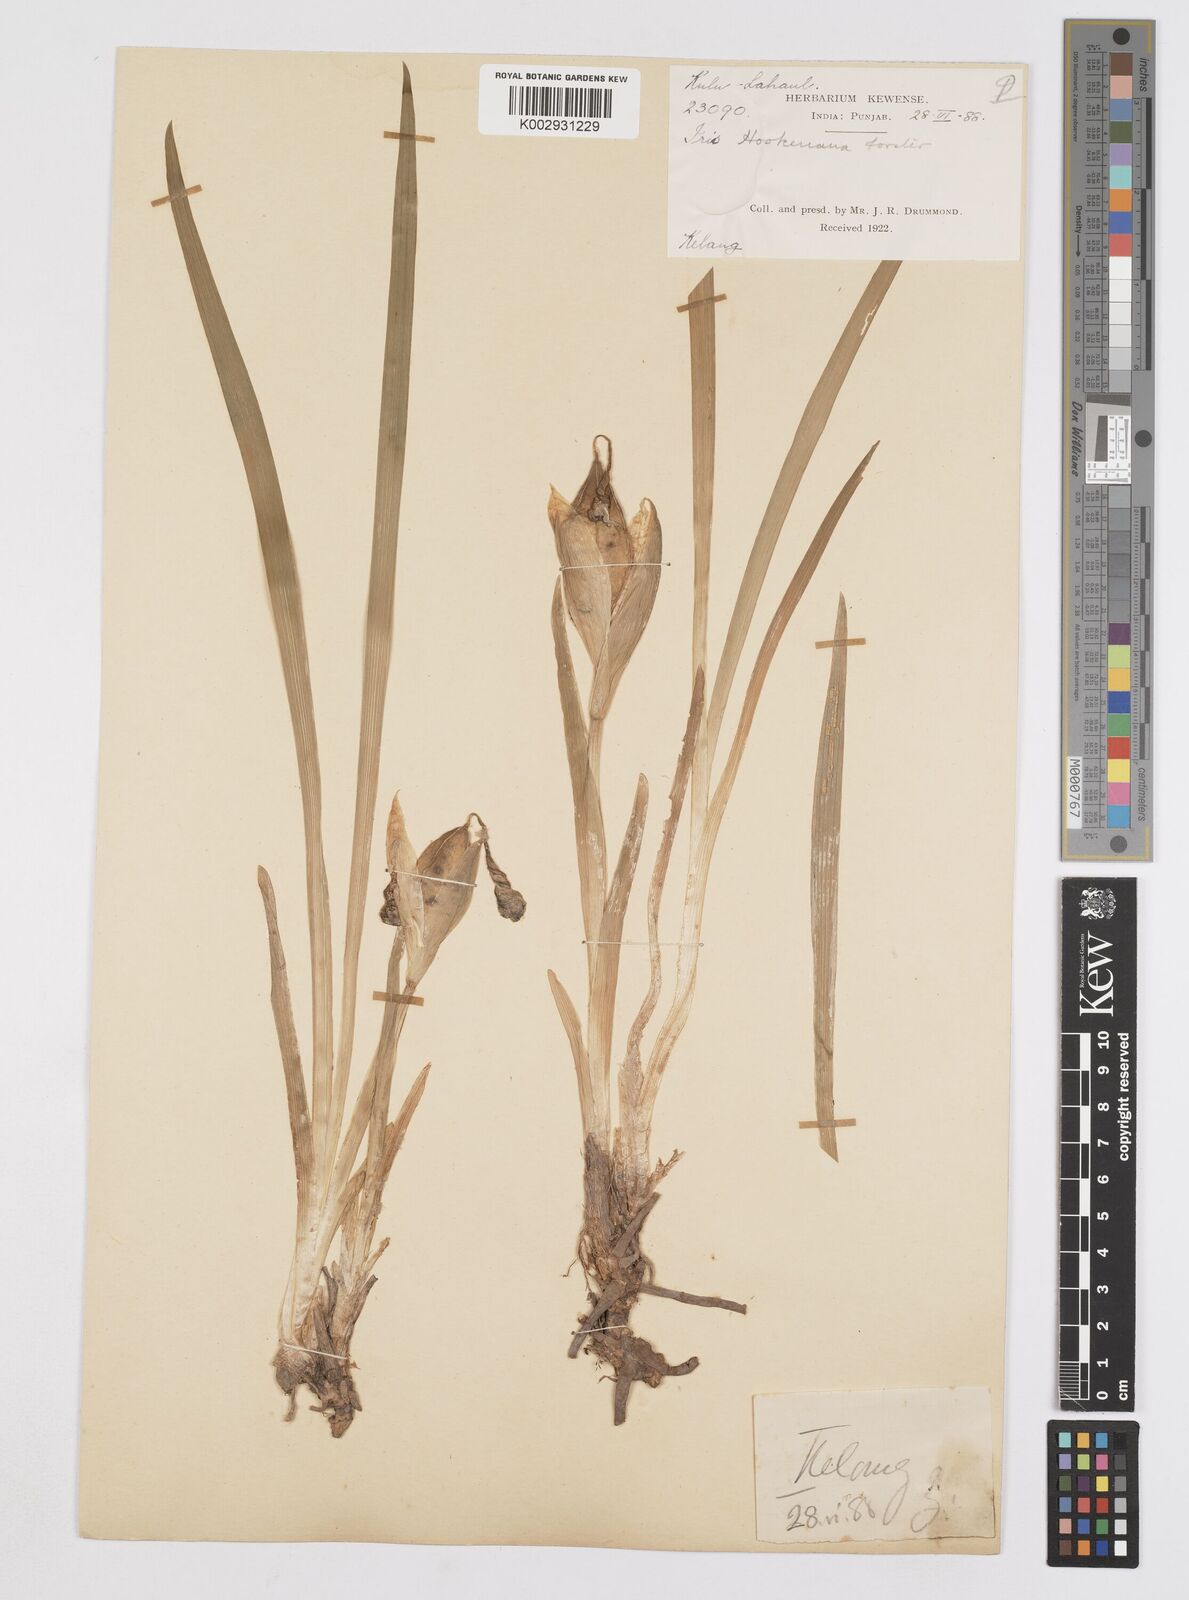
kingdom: Plantae
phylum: Tracheophyta
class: Liliopsida
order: Asparagales
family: Iridaceae
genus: Iris
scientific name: Iris hookeriana
